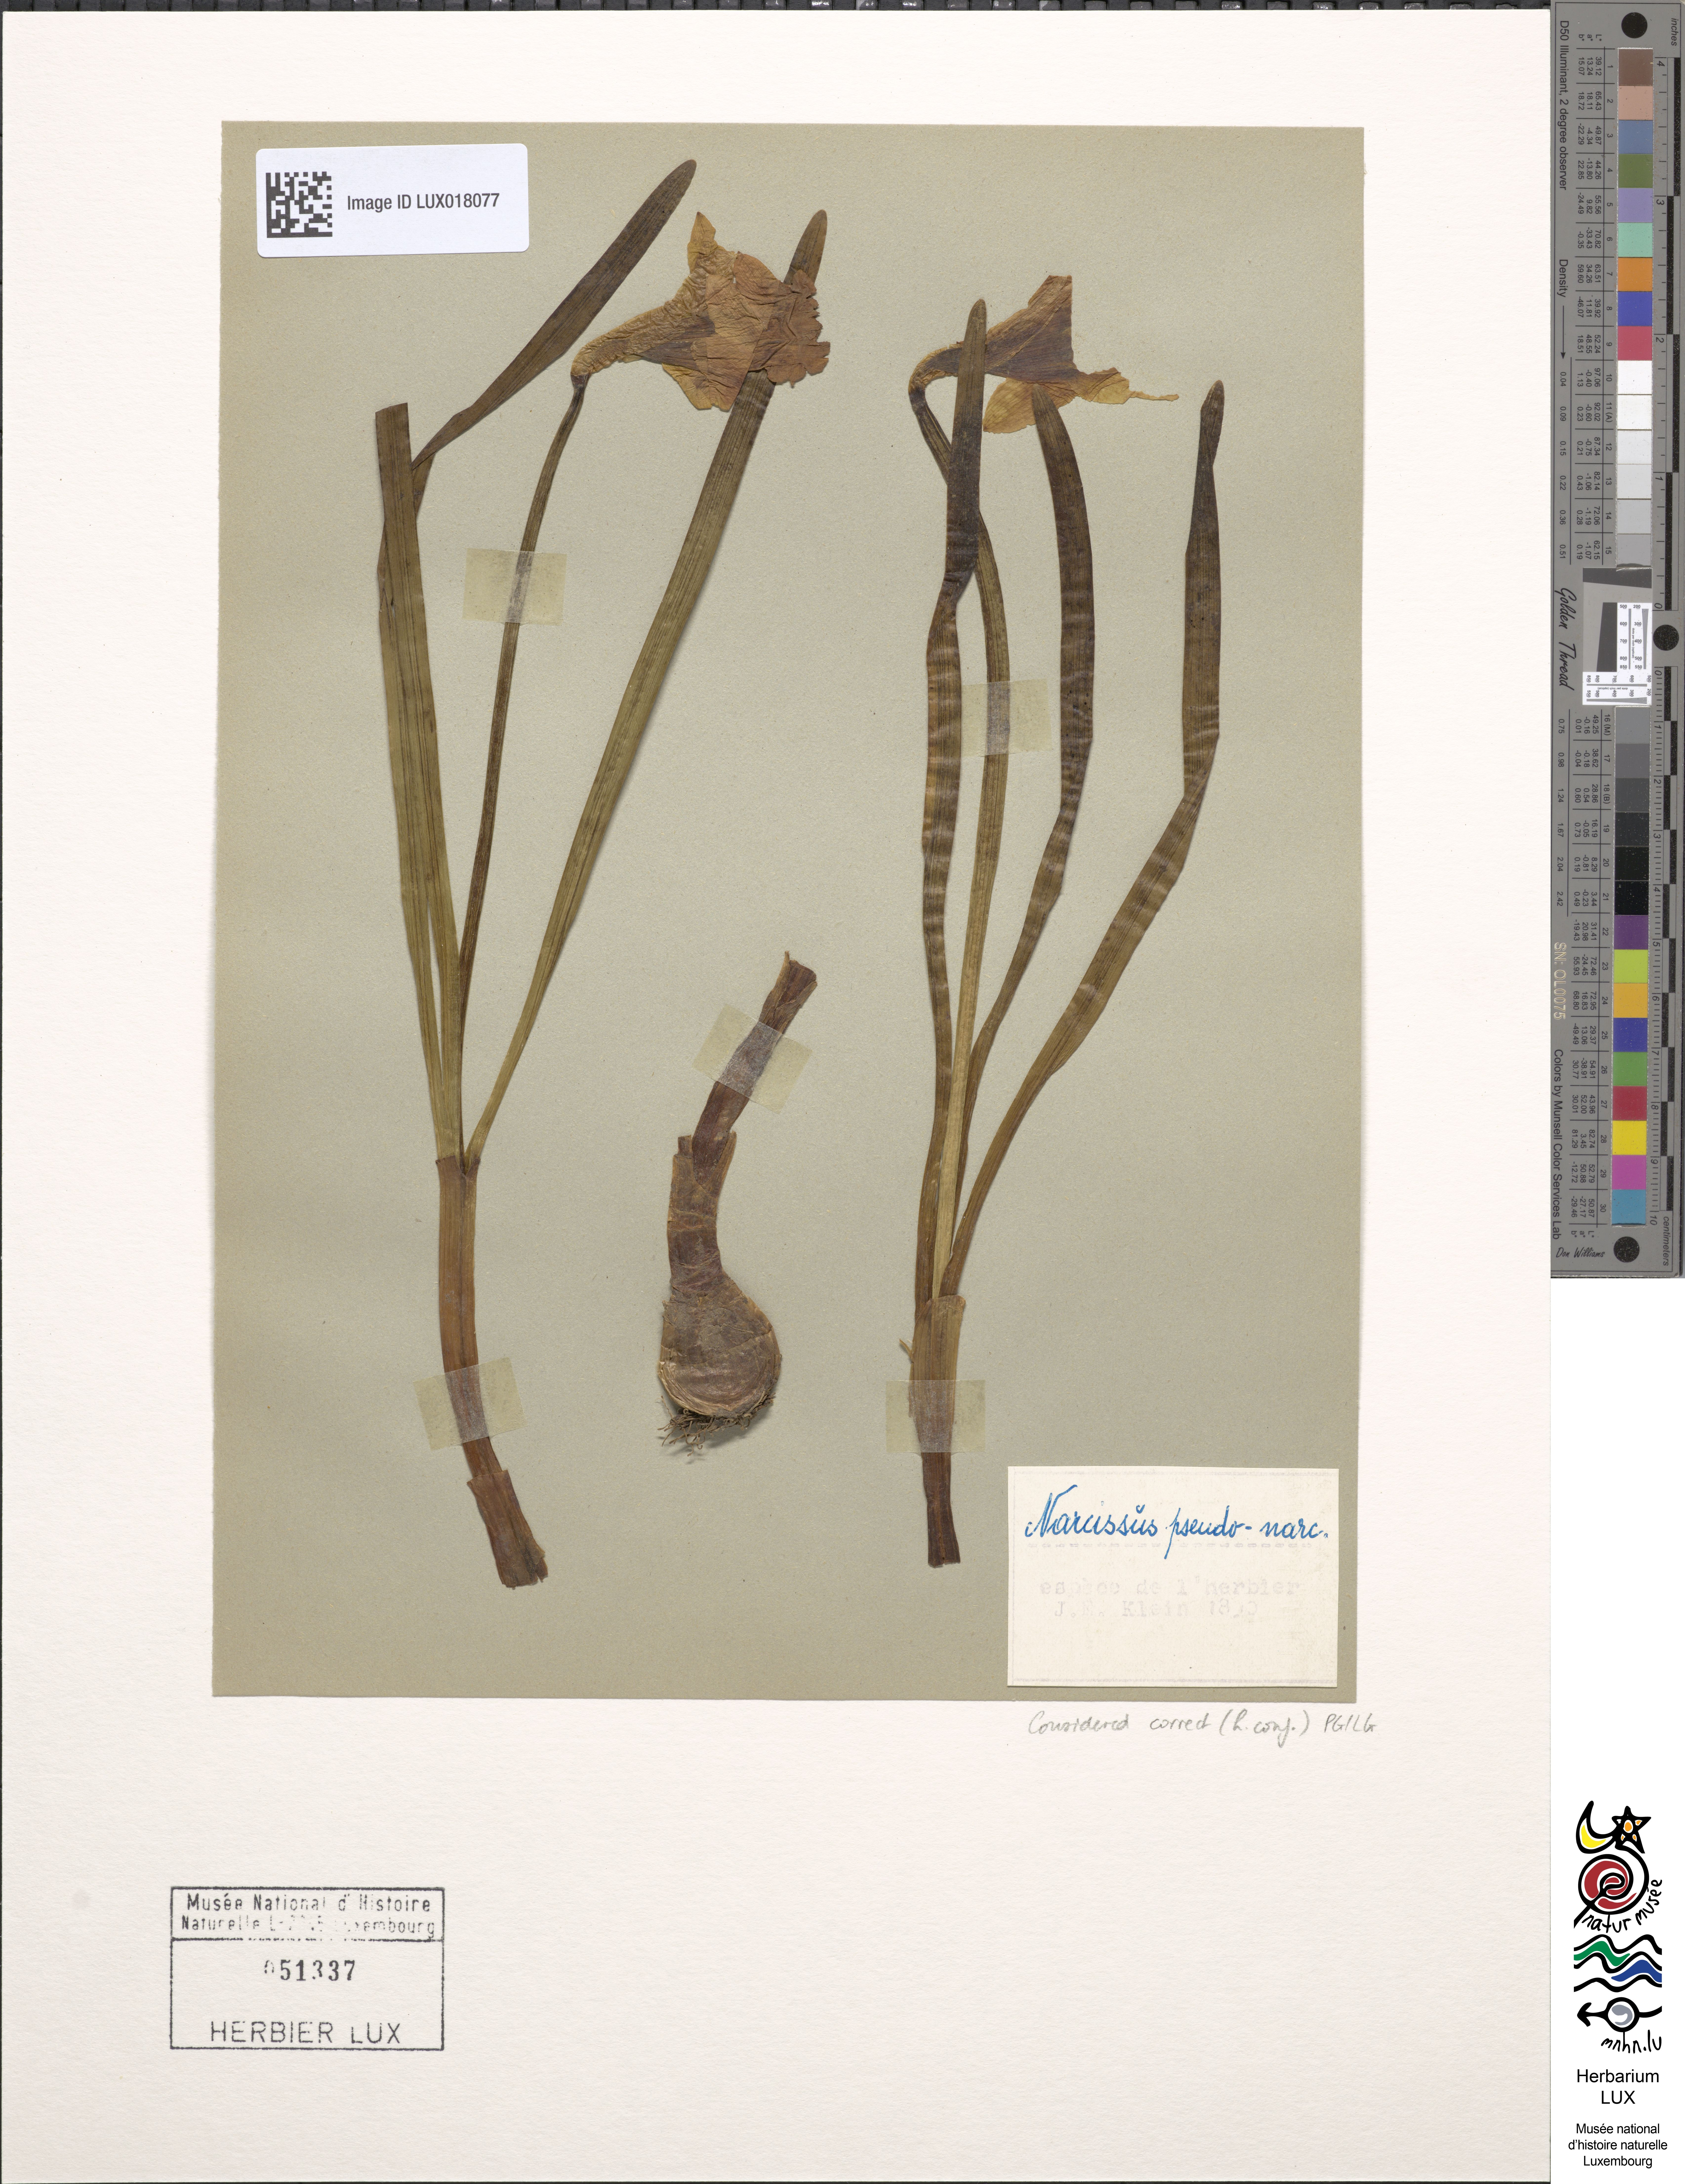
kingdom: Plantae
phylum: Tracheophyta
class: Liliopsida
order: Asparagales
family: Amaryllidaceae
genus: Narcissus
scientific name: Narcissus pseudonarcissus
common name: Daffodil
